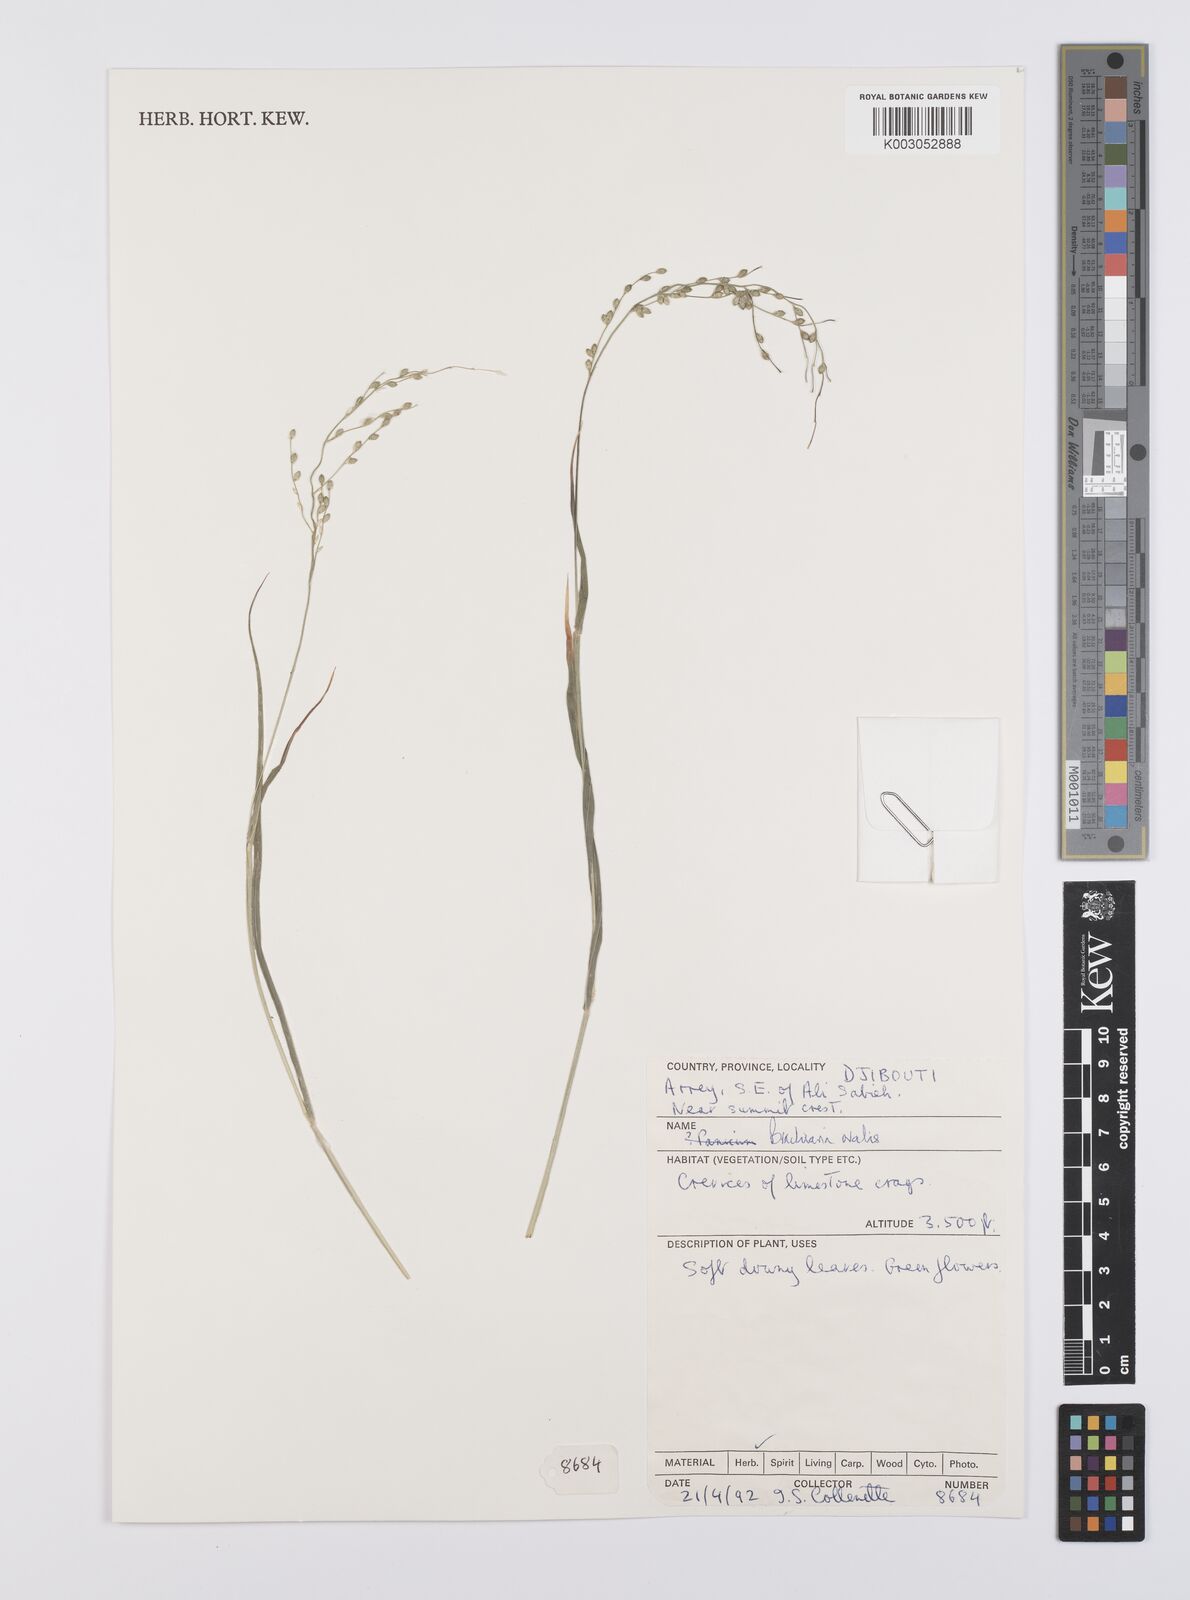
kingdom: Plantae
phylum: Tracheophyta
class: Liliopsida
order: Poales
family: Poaceae
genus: Urochloa
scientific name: Urochloa ovalis
